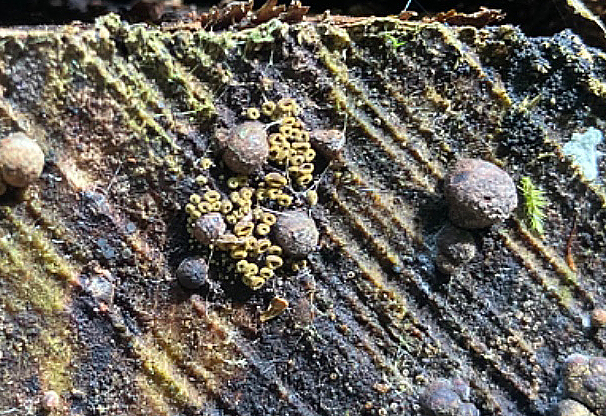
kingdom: Fungi
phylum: Ascomycota
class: Leotiomycetes
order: Helotiales
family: Lachnaceae
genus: Neodasyscypha
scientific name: Neodasyscypha cerina
